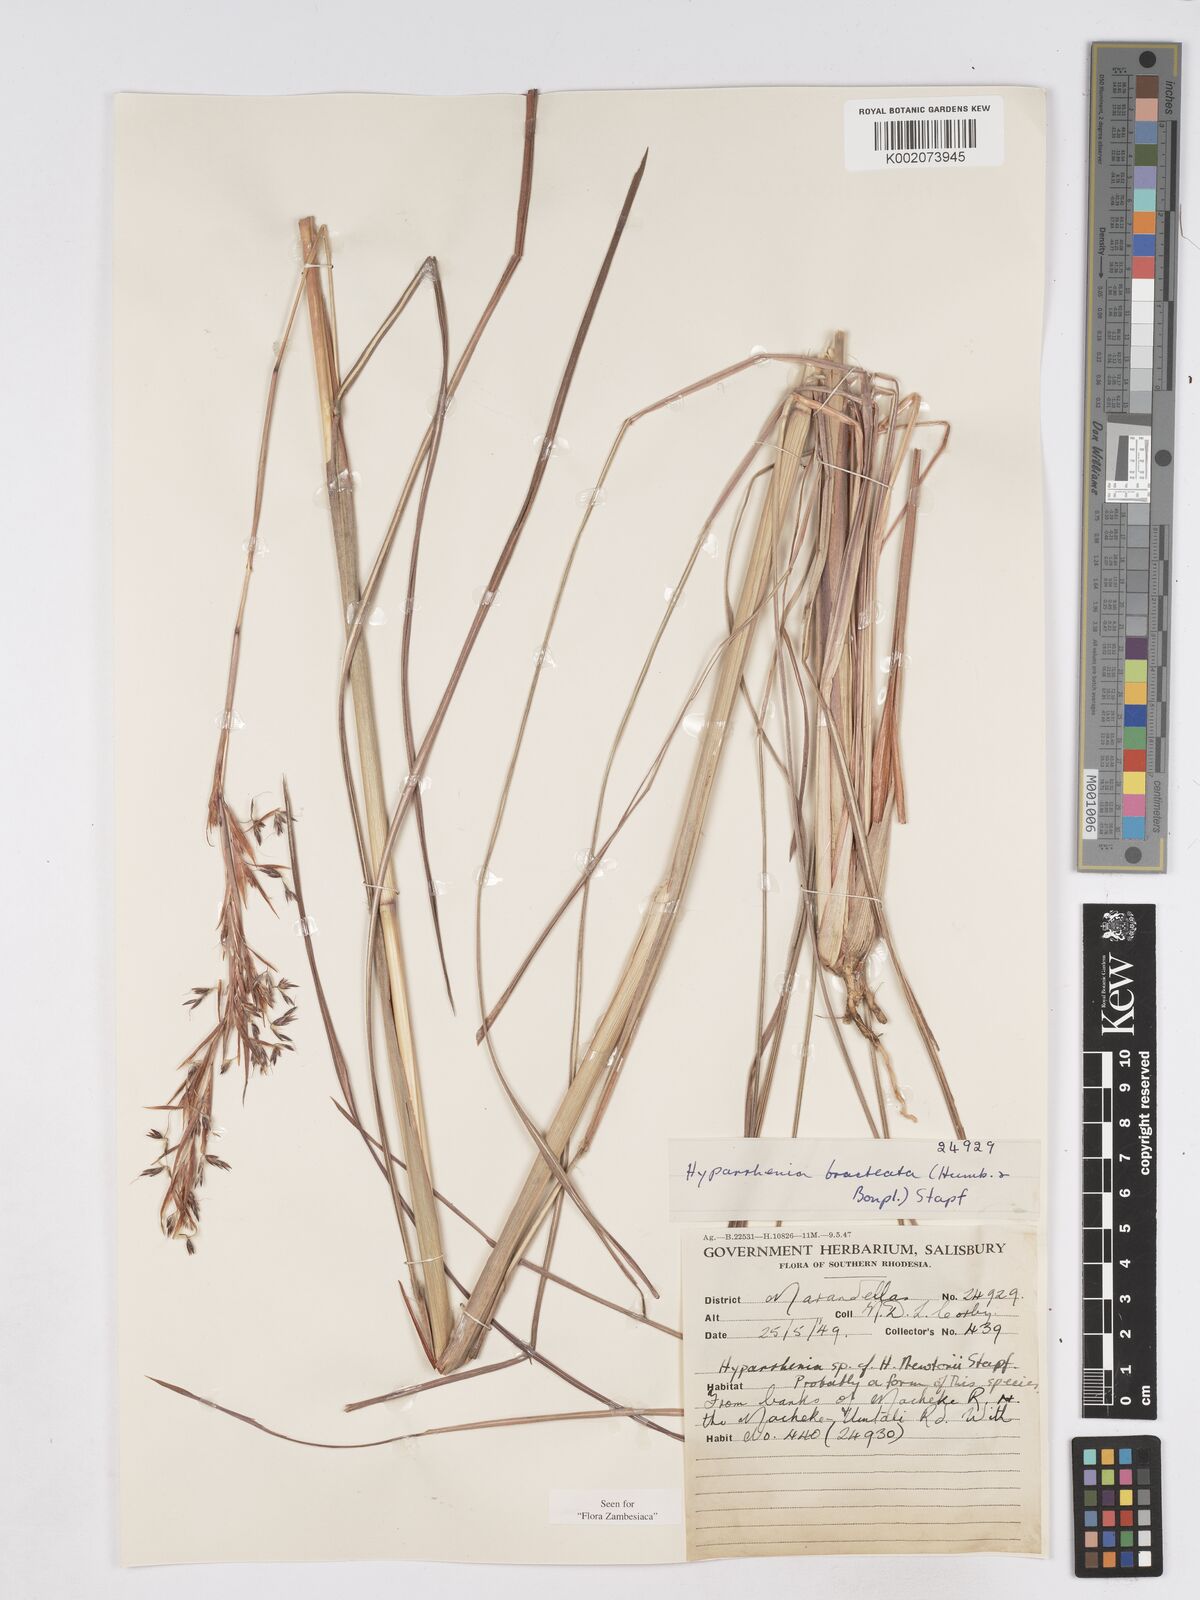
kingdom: Plantae
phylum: Tracheophyta
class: Liliopsida
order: Poales
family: Poaceae
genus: Hyparrhenia
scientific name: Hyparrhenia bracteata
